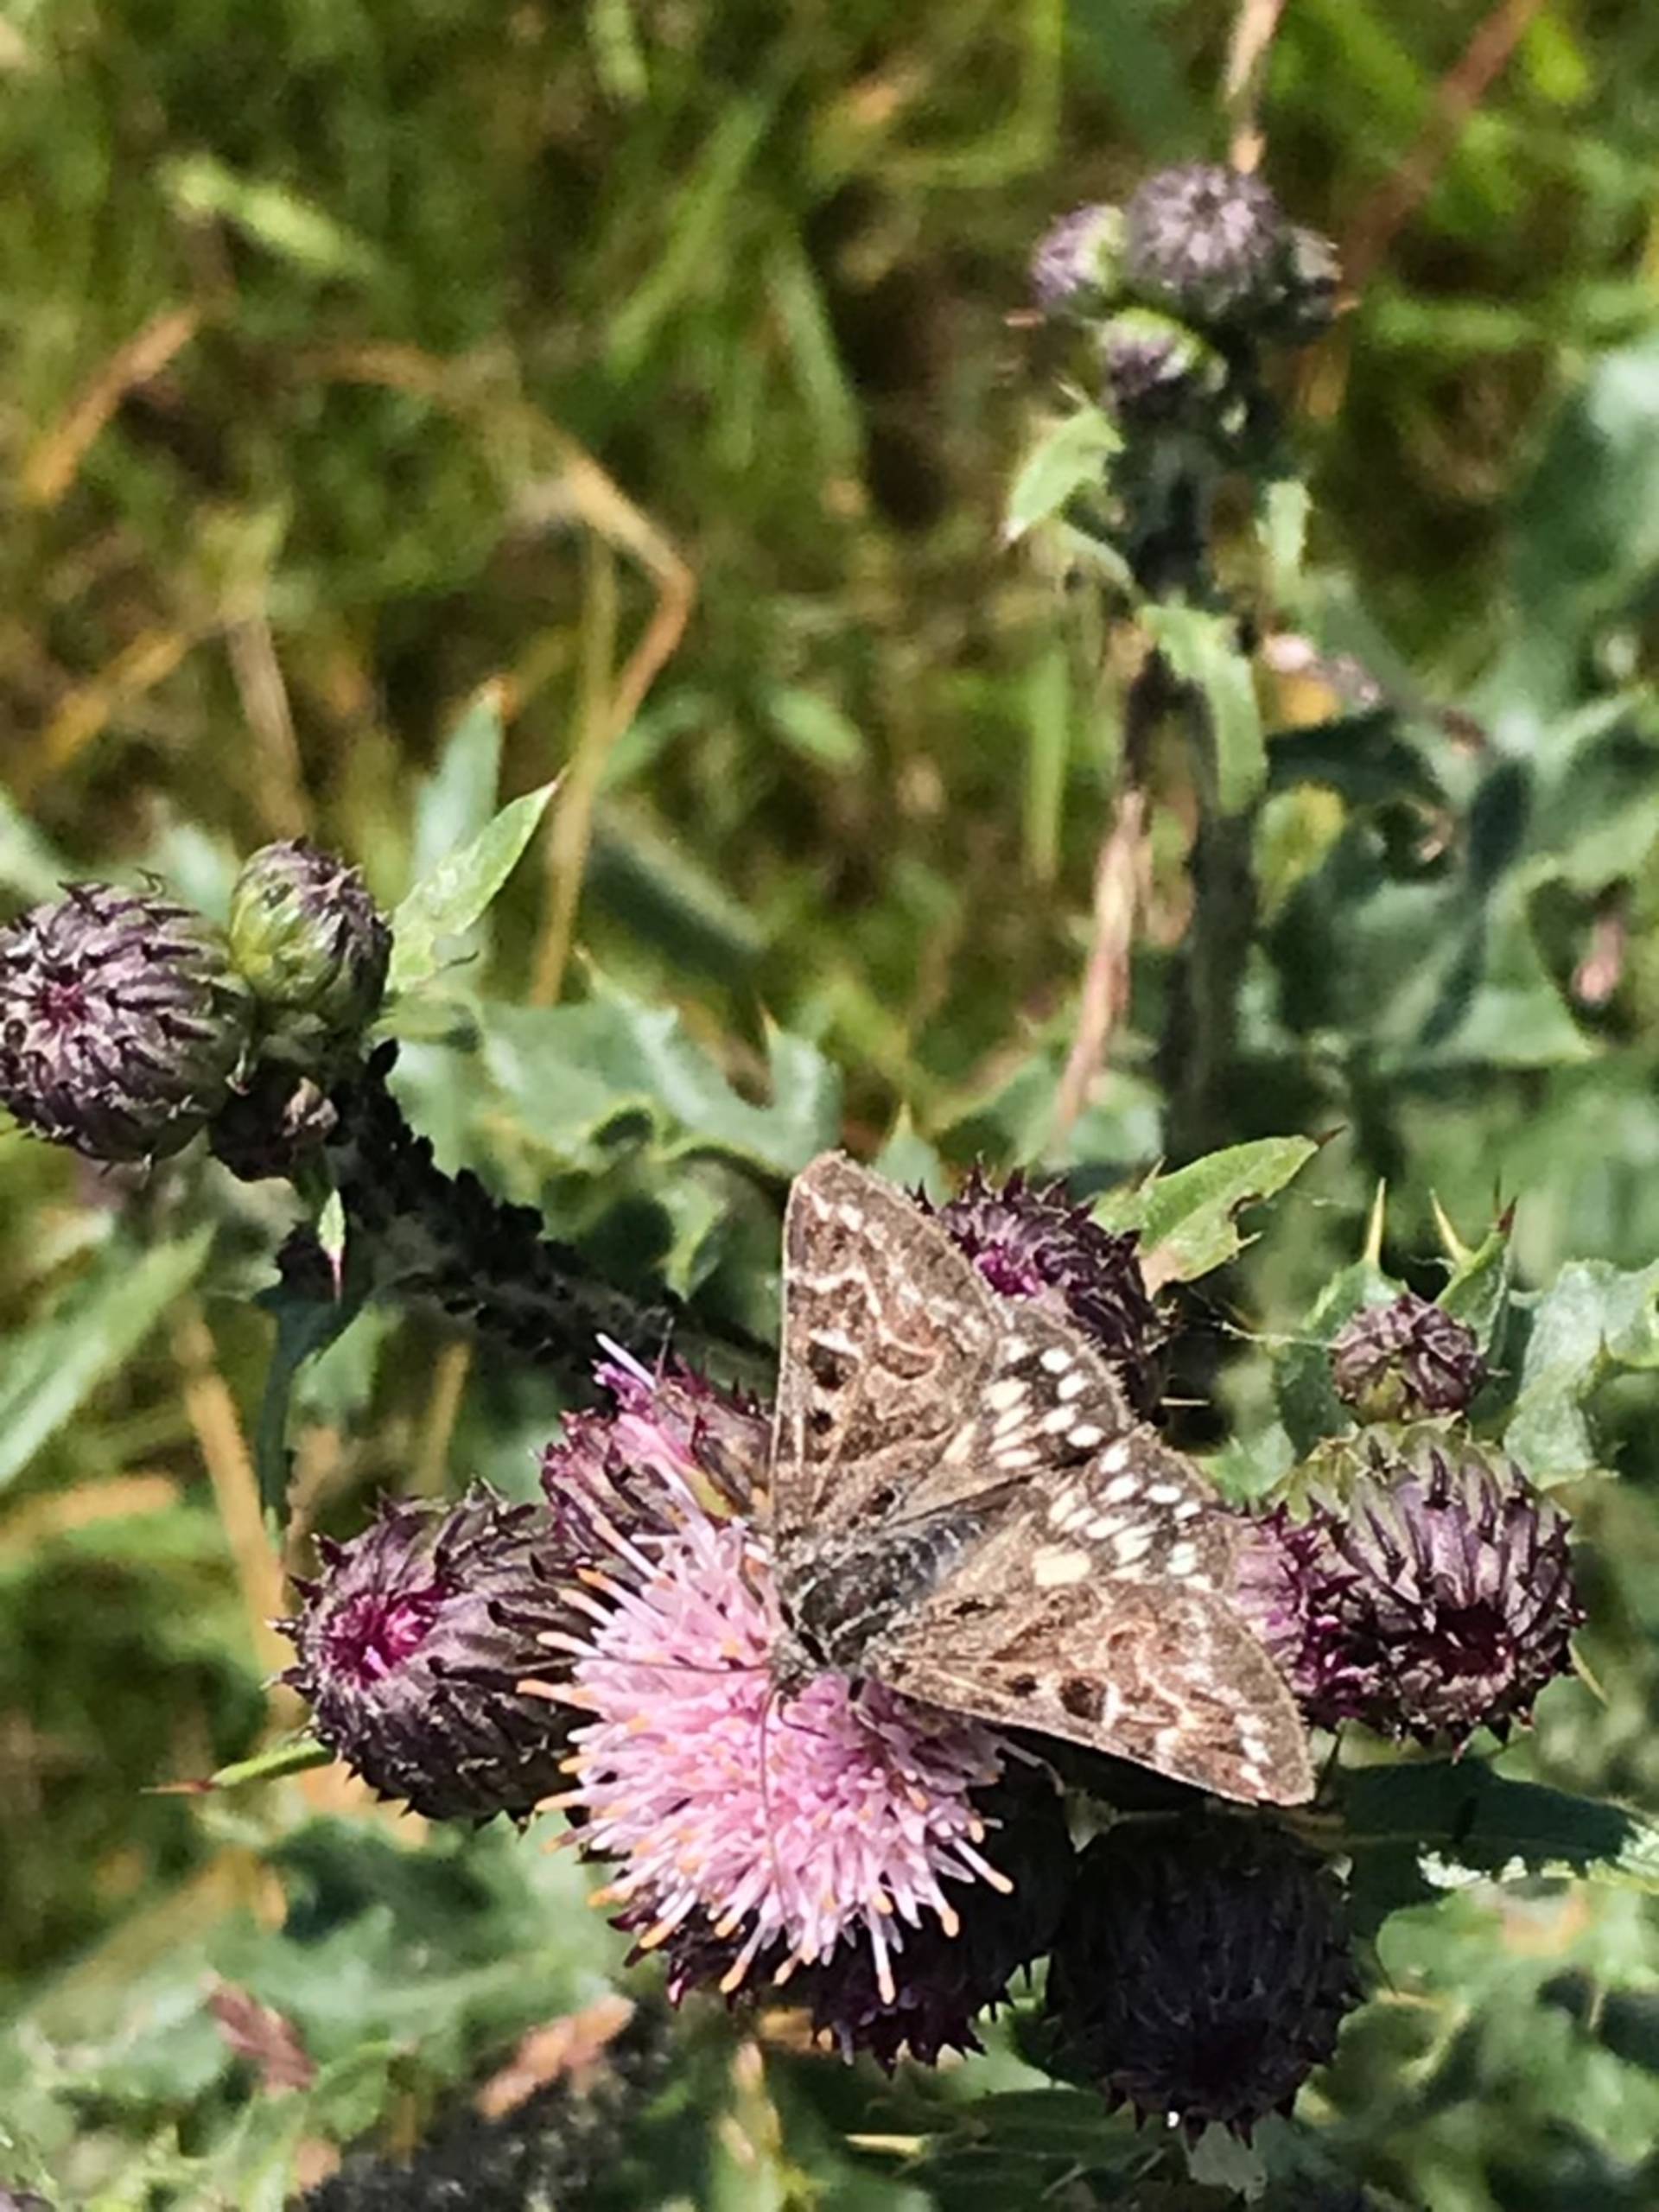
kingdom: Animalia
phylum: Arthropoda
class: Insecta
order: Lepidoptera
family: Erebidae
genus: Callistege
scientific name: Callistege mi
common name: Marmoreret kløverugle
